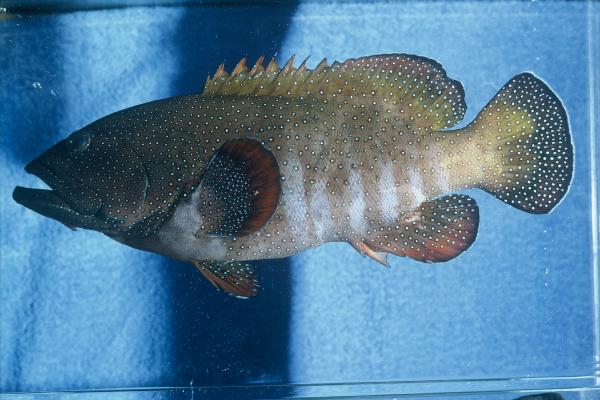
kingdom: Animalia
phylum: Chordata
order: Perciformes
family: Serranidae
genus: Cephalopholis
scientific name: Cephalopholis argus
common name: Peacock grouper
